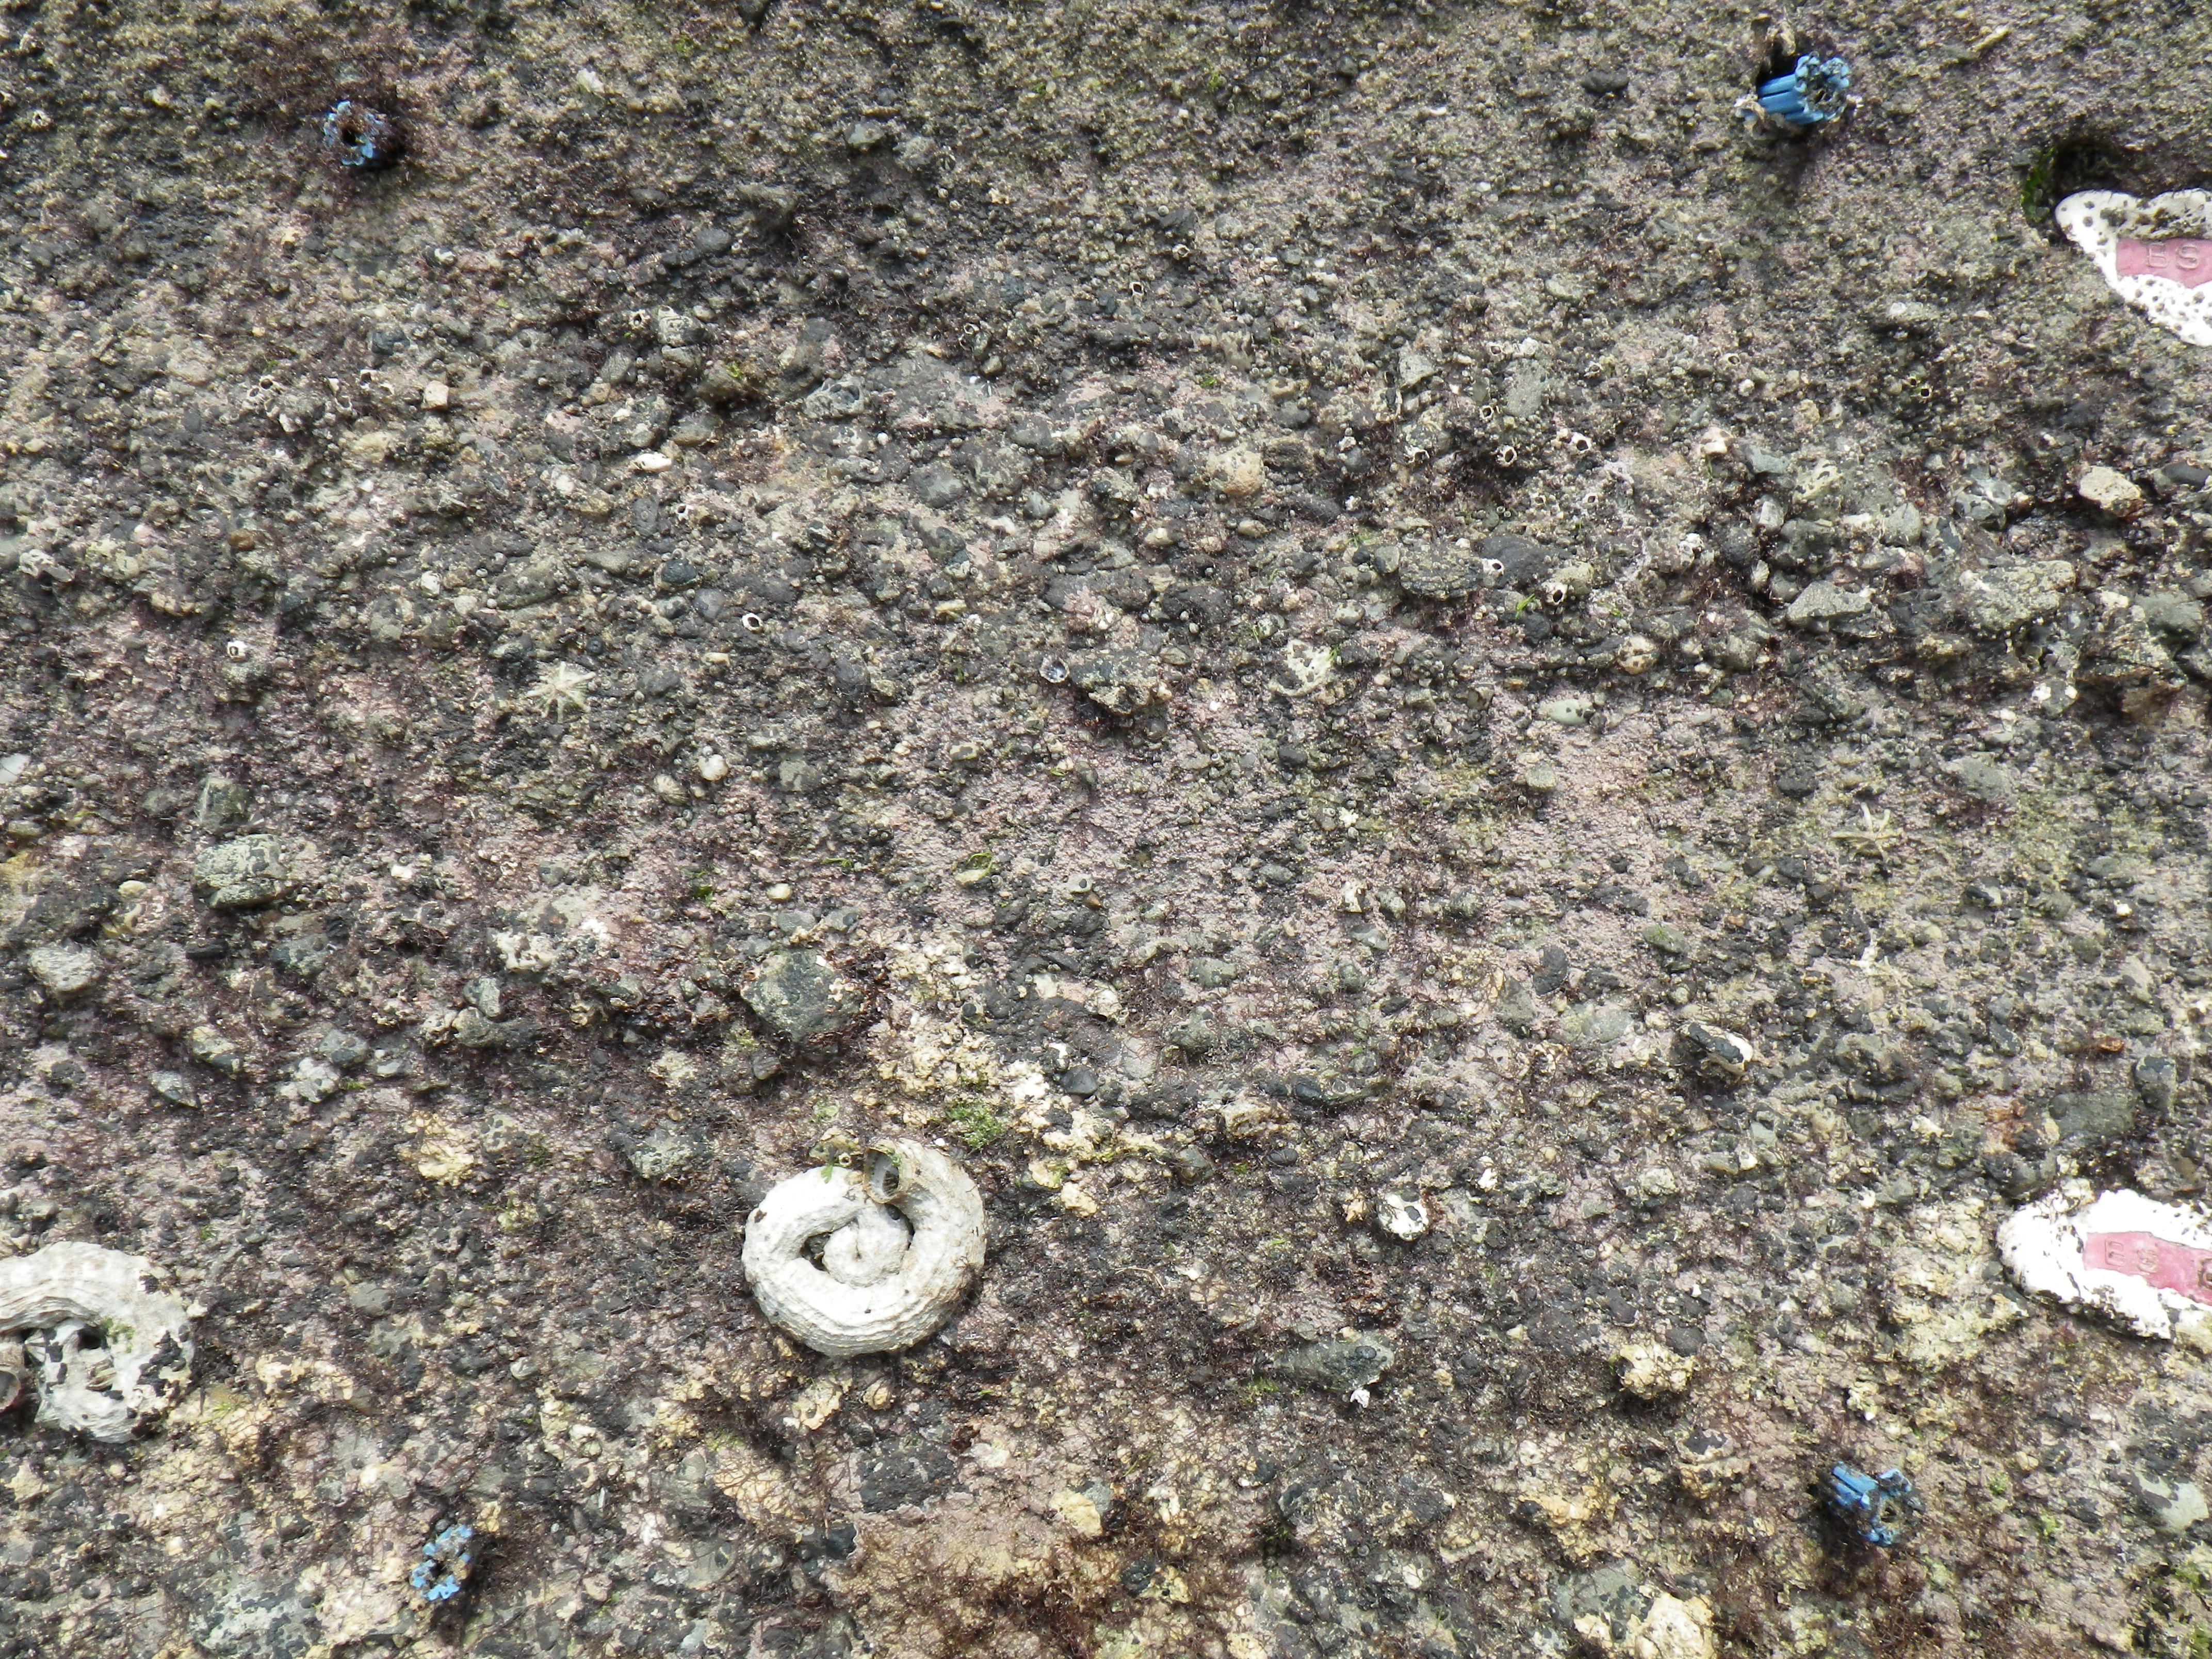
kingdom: Animalia
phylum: Arthropoda
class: Maxillopoda
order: Sessilia
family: Chthamalidae
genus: Chthamalus
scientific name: Chthamalus challengeri
